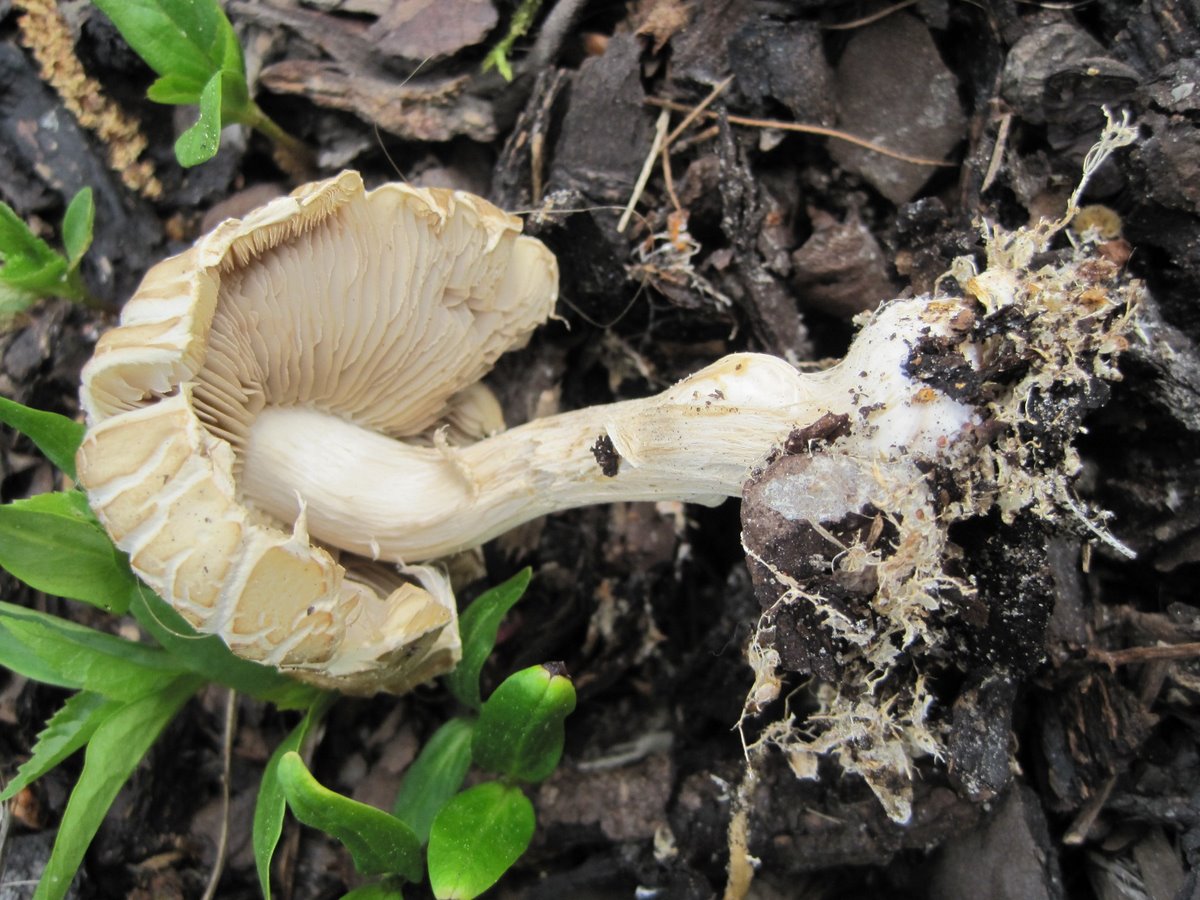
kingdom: Fungi
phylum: Basidiomycota
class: Agaricomycetes
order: Agaricales
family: Strophariaceae
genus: Agrocybe
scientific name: Agrocybe praecox
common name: tidlig agerhat
